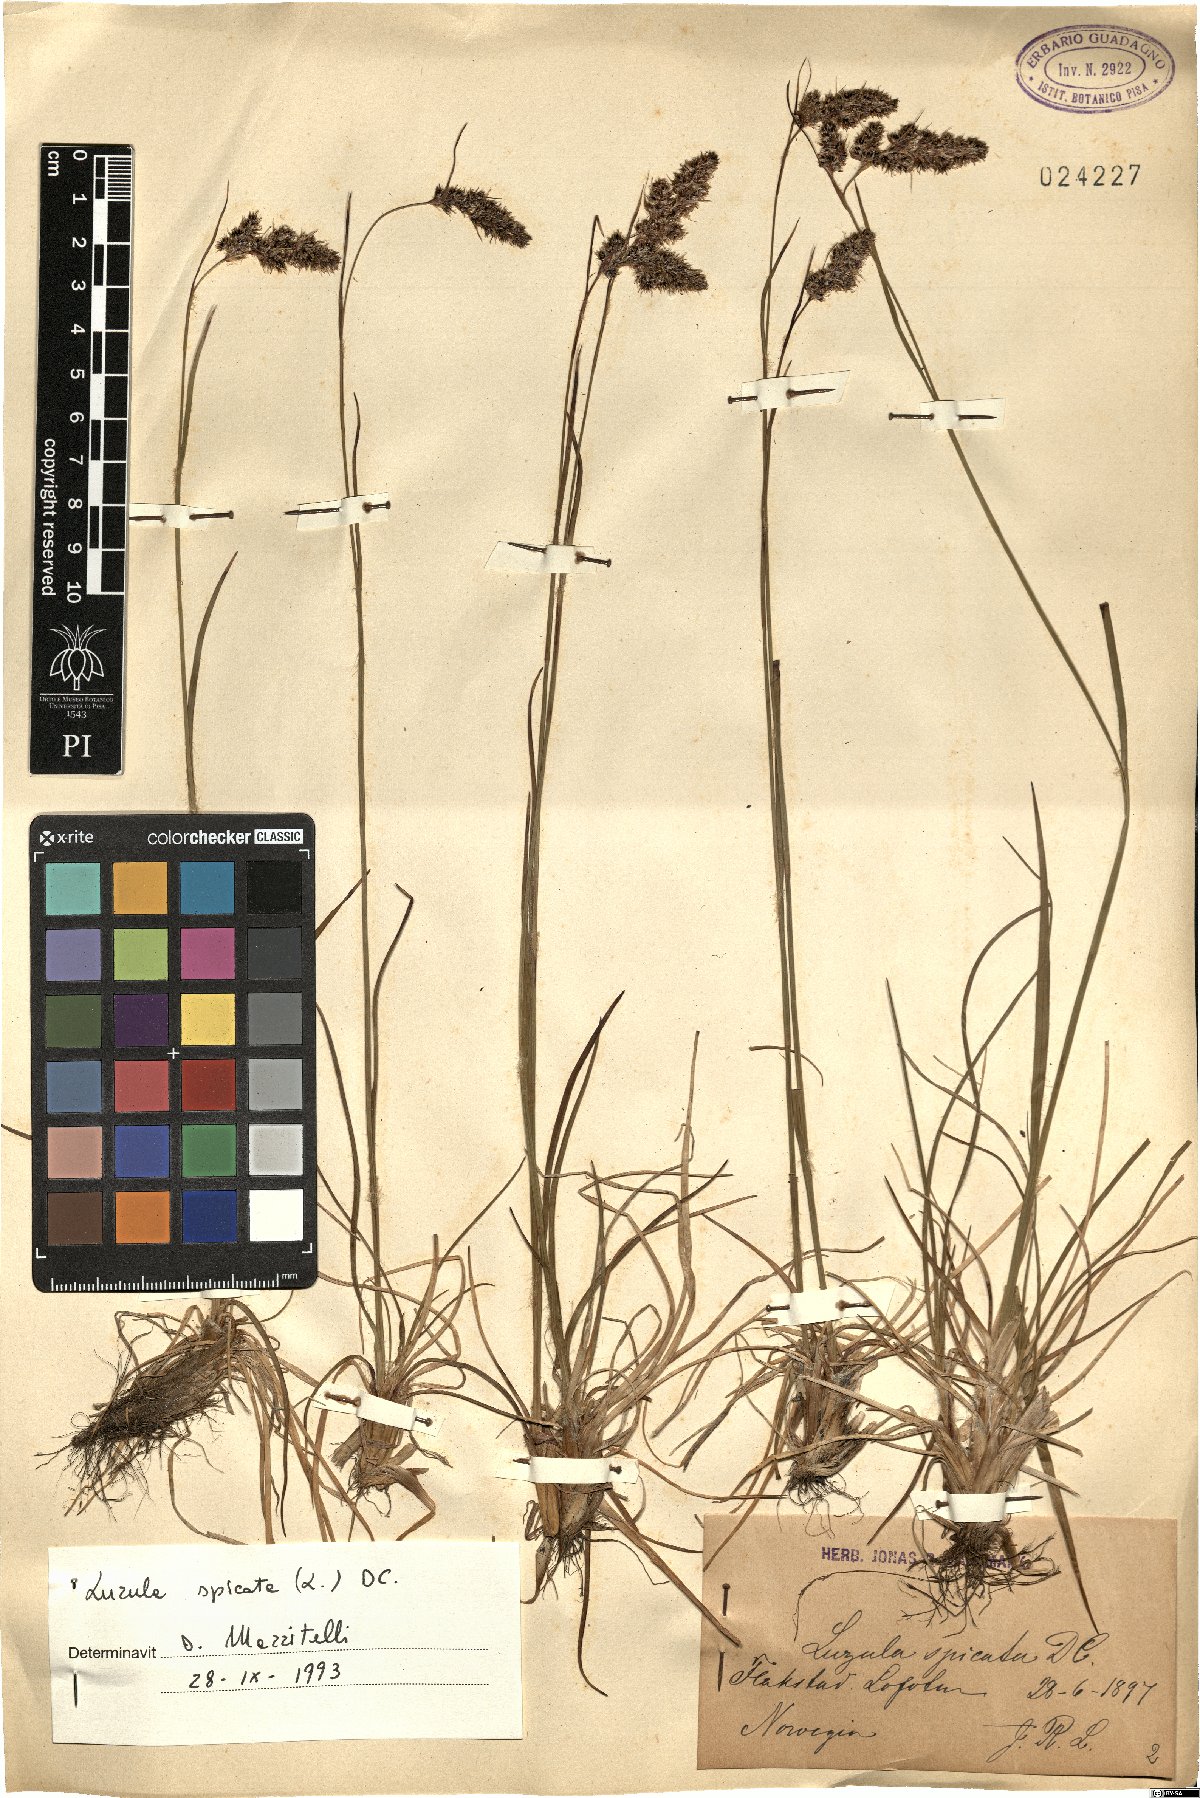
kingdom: Plantae
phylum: Tracheophyta
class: Liliopsida
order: Poales
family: Juncaceae
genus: Luzula
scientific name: Luzula spicata
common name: Spiked wood-rush
